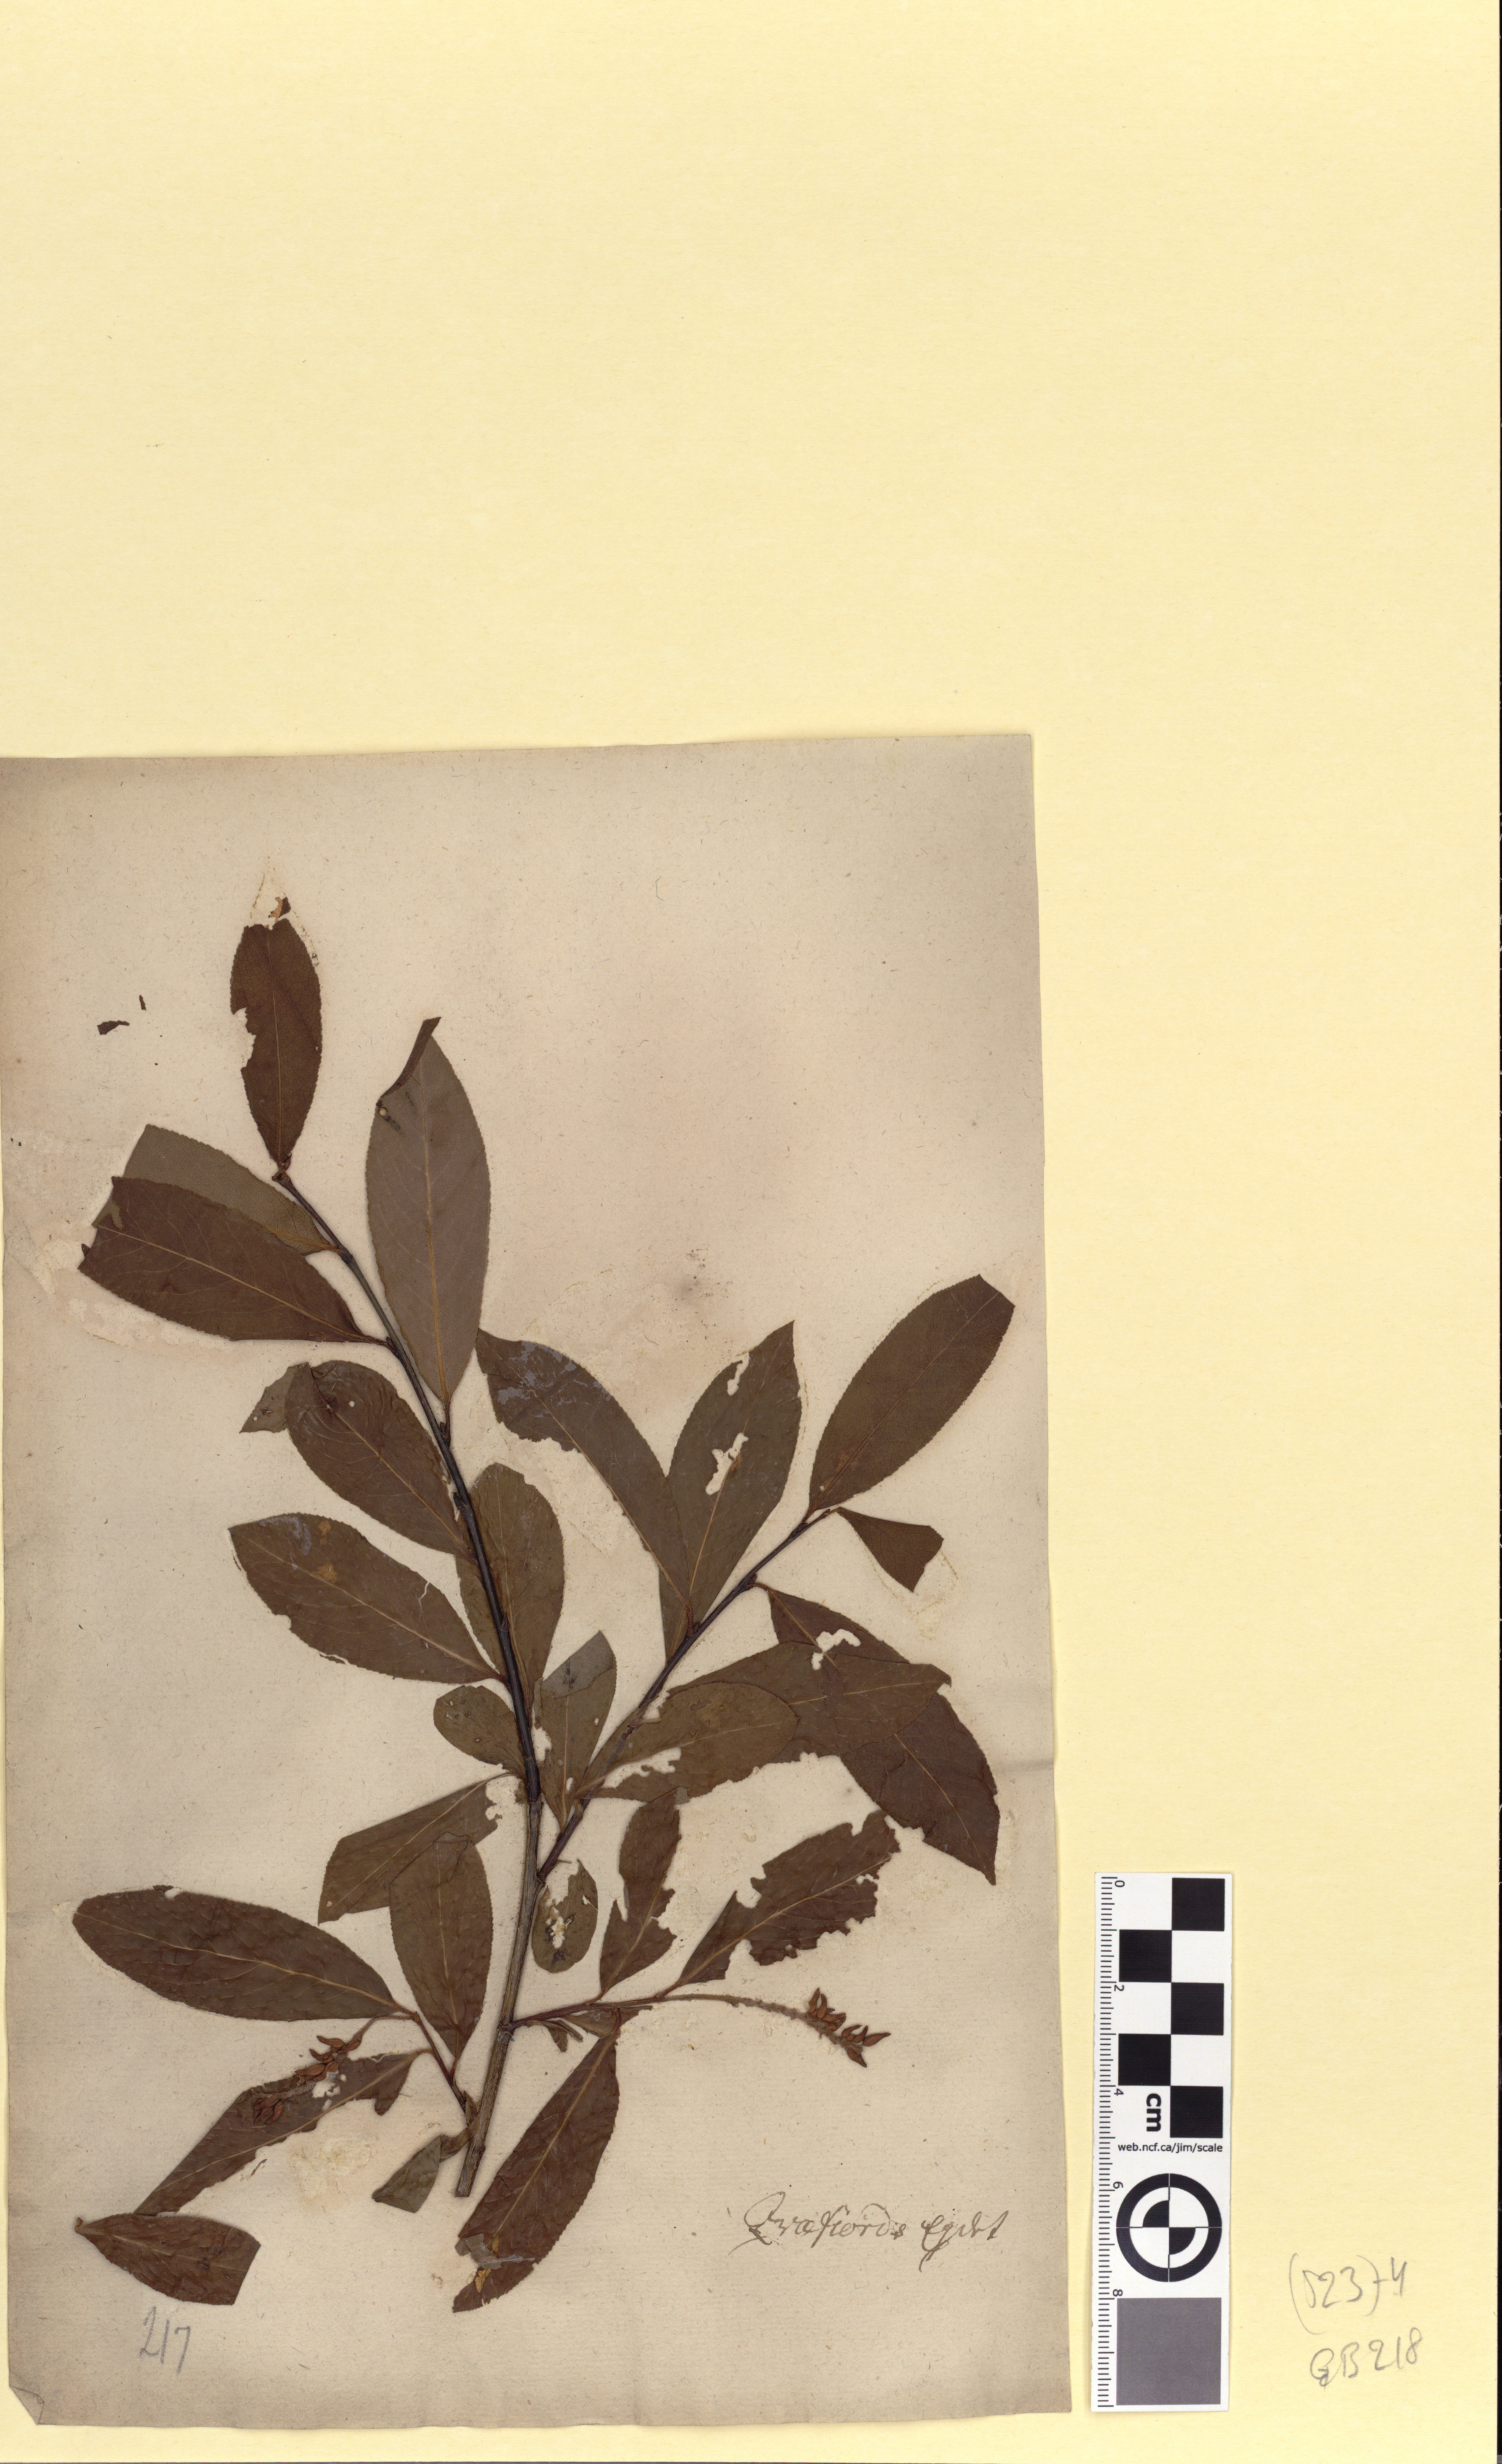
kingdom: Plantae
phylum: Tracheophyta
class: Magnoliopsida
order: Malpighiales
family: Salicaceae
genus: Salix
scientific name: Salix pentandra
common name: Bay willow
